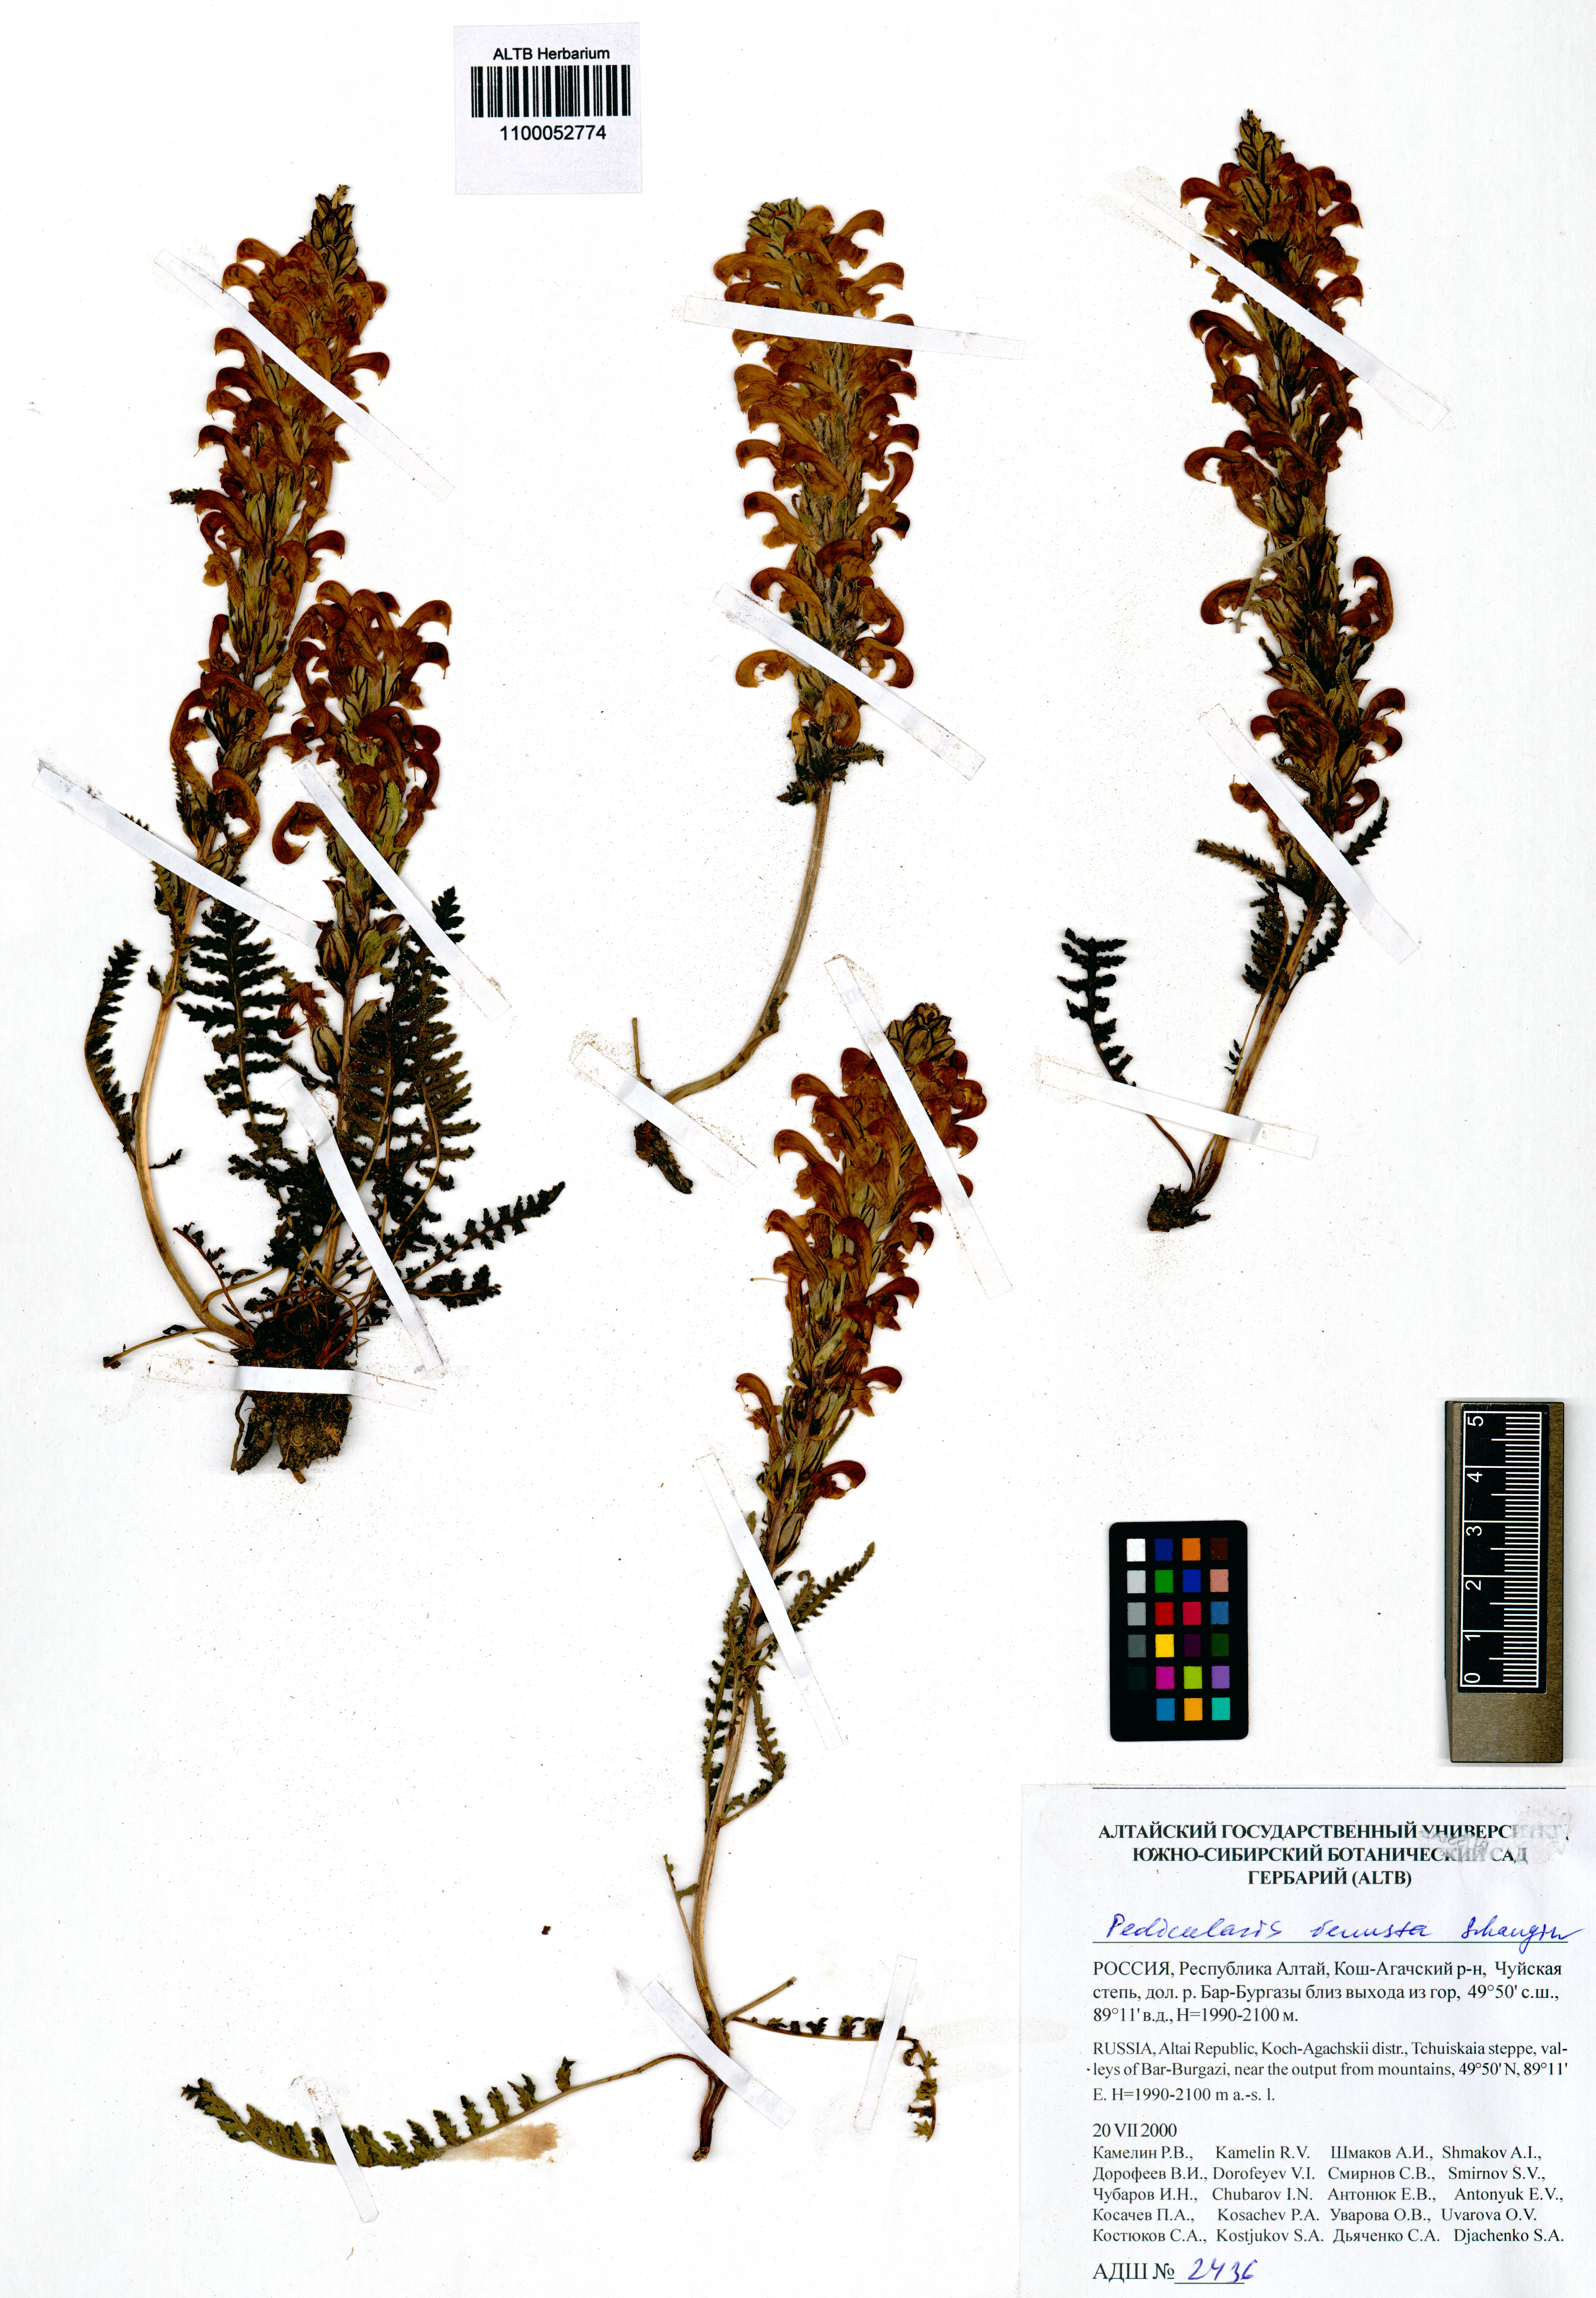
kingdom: Plantae
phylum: Tracheophyta
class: Magnoliopsida
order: Lamiales
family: Orobanchaceae
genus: Pedicularis
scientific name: Pedicularis venusta
